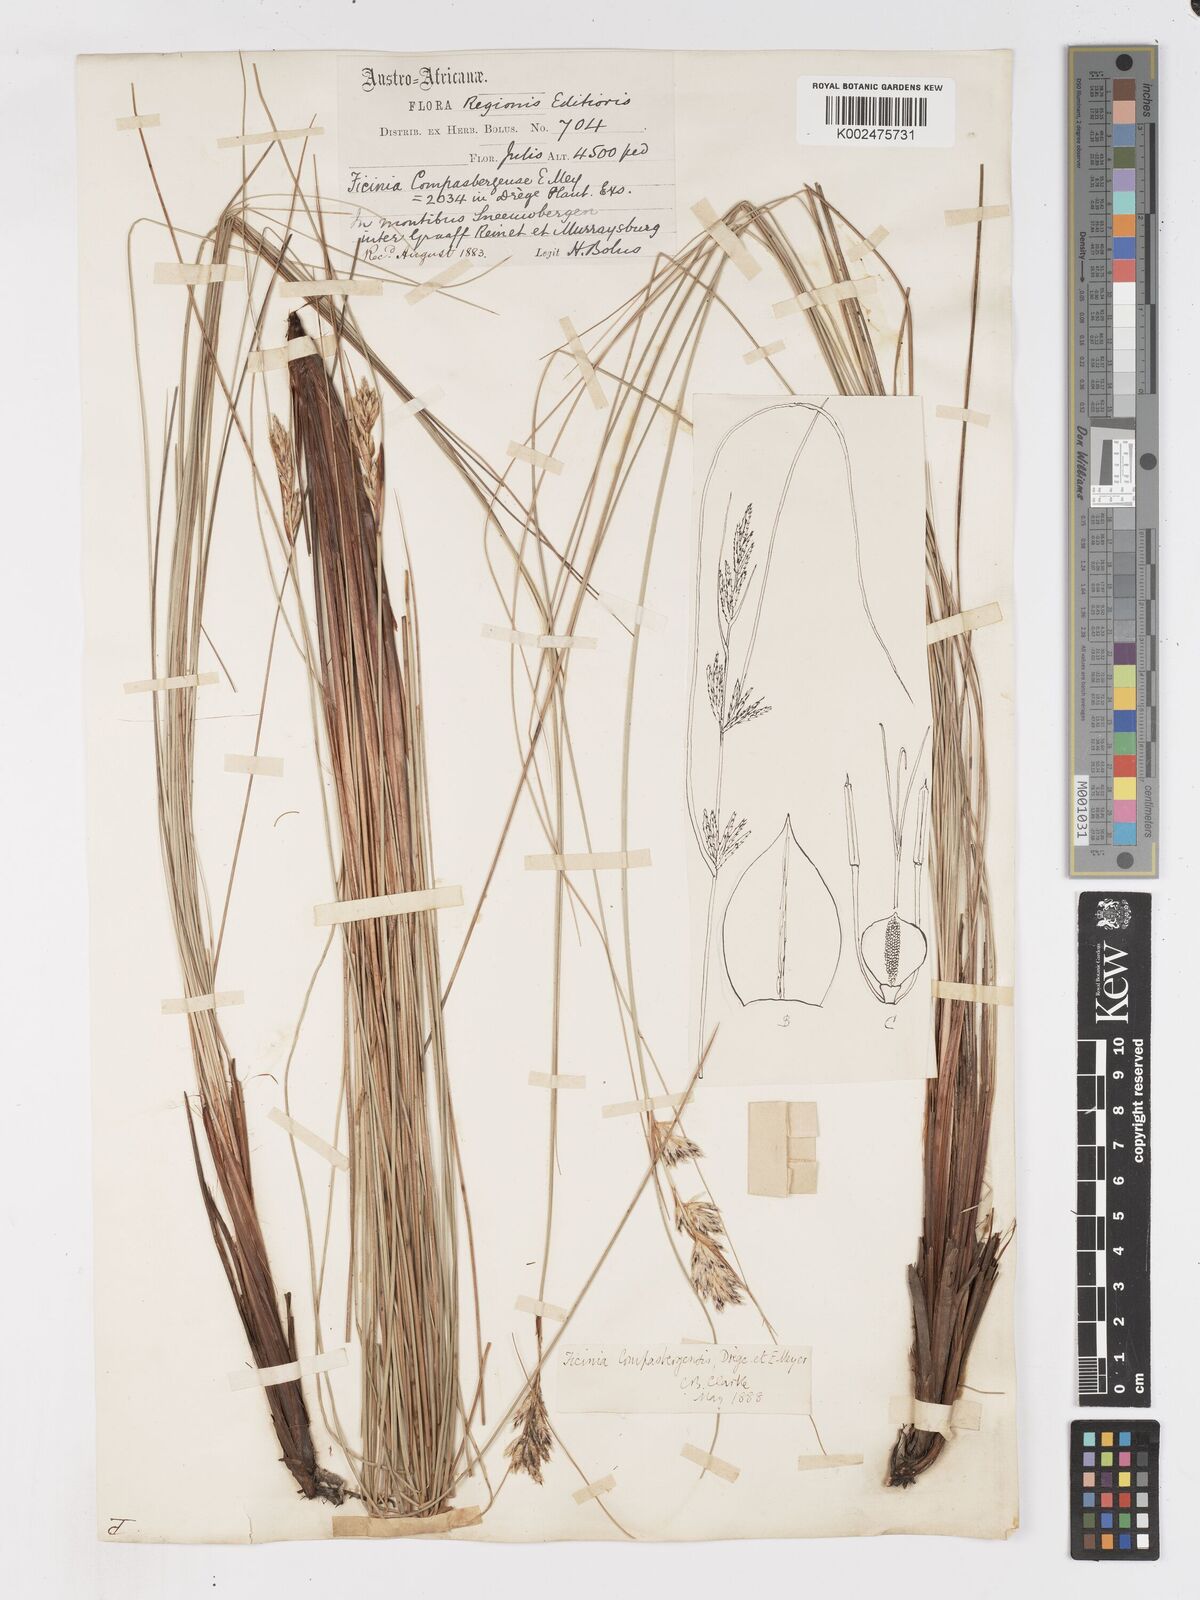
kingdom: Plantae
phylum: Tracheophyta
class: Liliopsida
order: Poales
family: Cyperaceae
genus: Ficinia
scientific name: Ficinia compasbergensis
